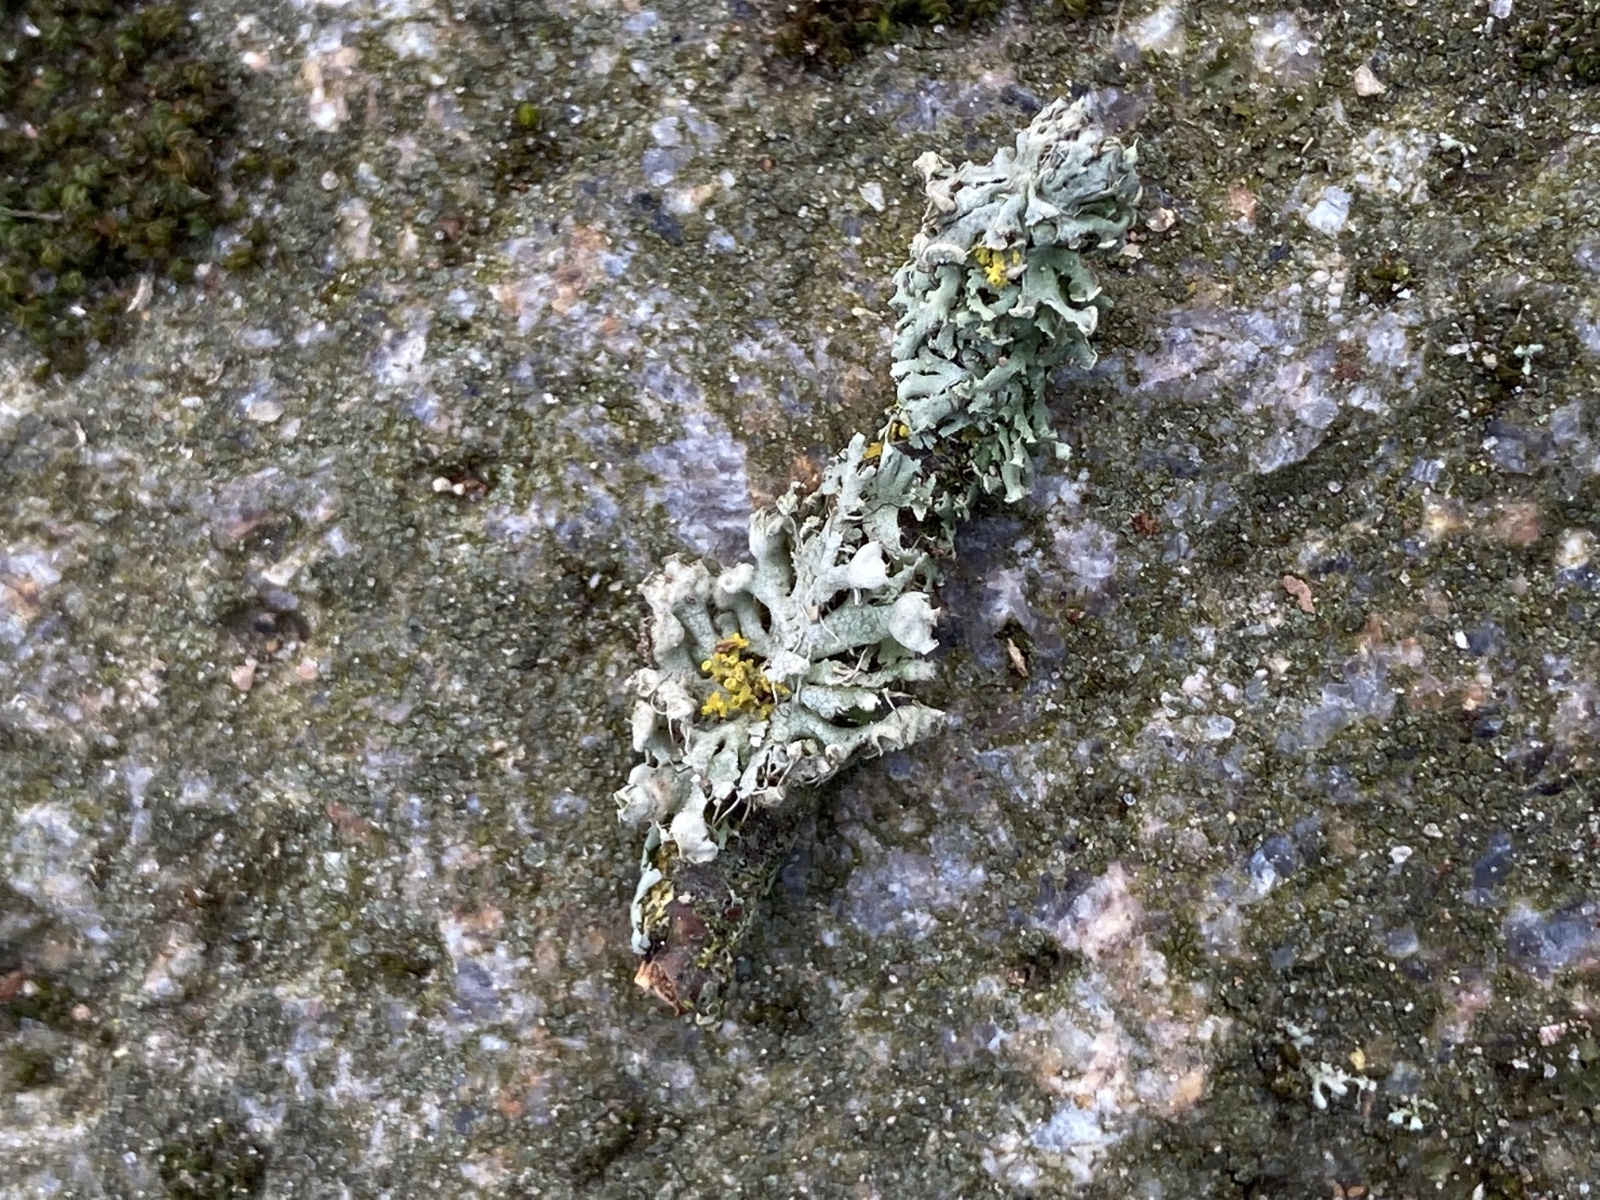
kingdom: Fungi
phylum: Ascomycota
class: Lecanoromycetes
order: Caliciales
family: Physciaceae
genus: Physcia
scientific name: Physcia adscendens
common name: hætte-rosetlav
